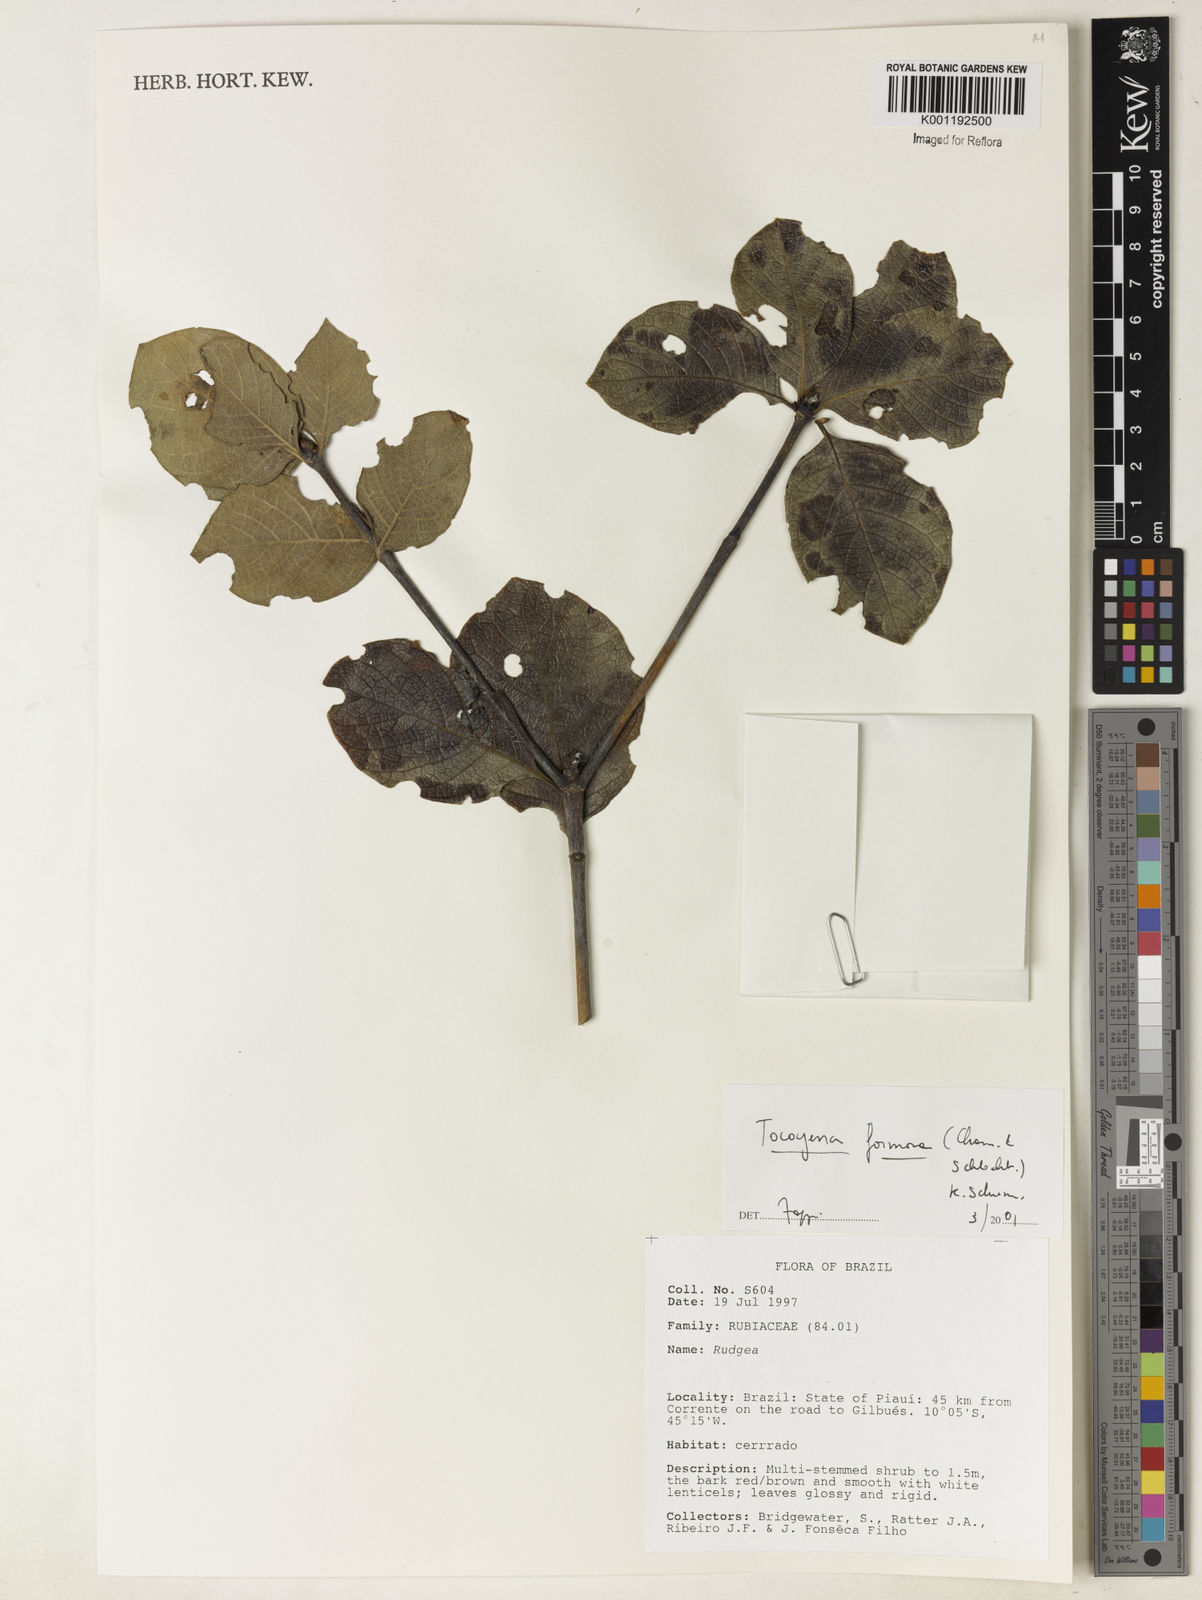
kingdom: Plantae
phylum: Tracheophyta
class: Magnoliopsida
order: Gentianales
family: Rubiaceae
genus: Tocoyena
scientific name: Tocoyena formosa
